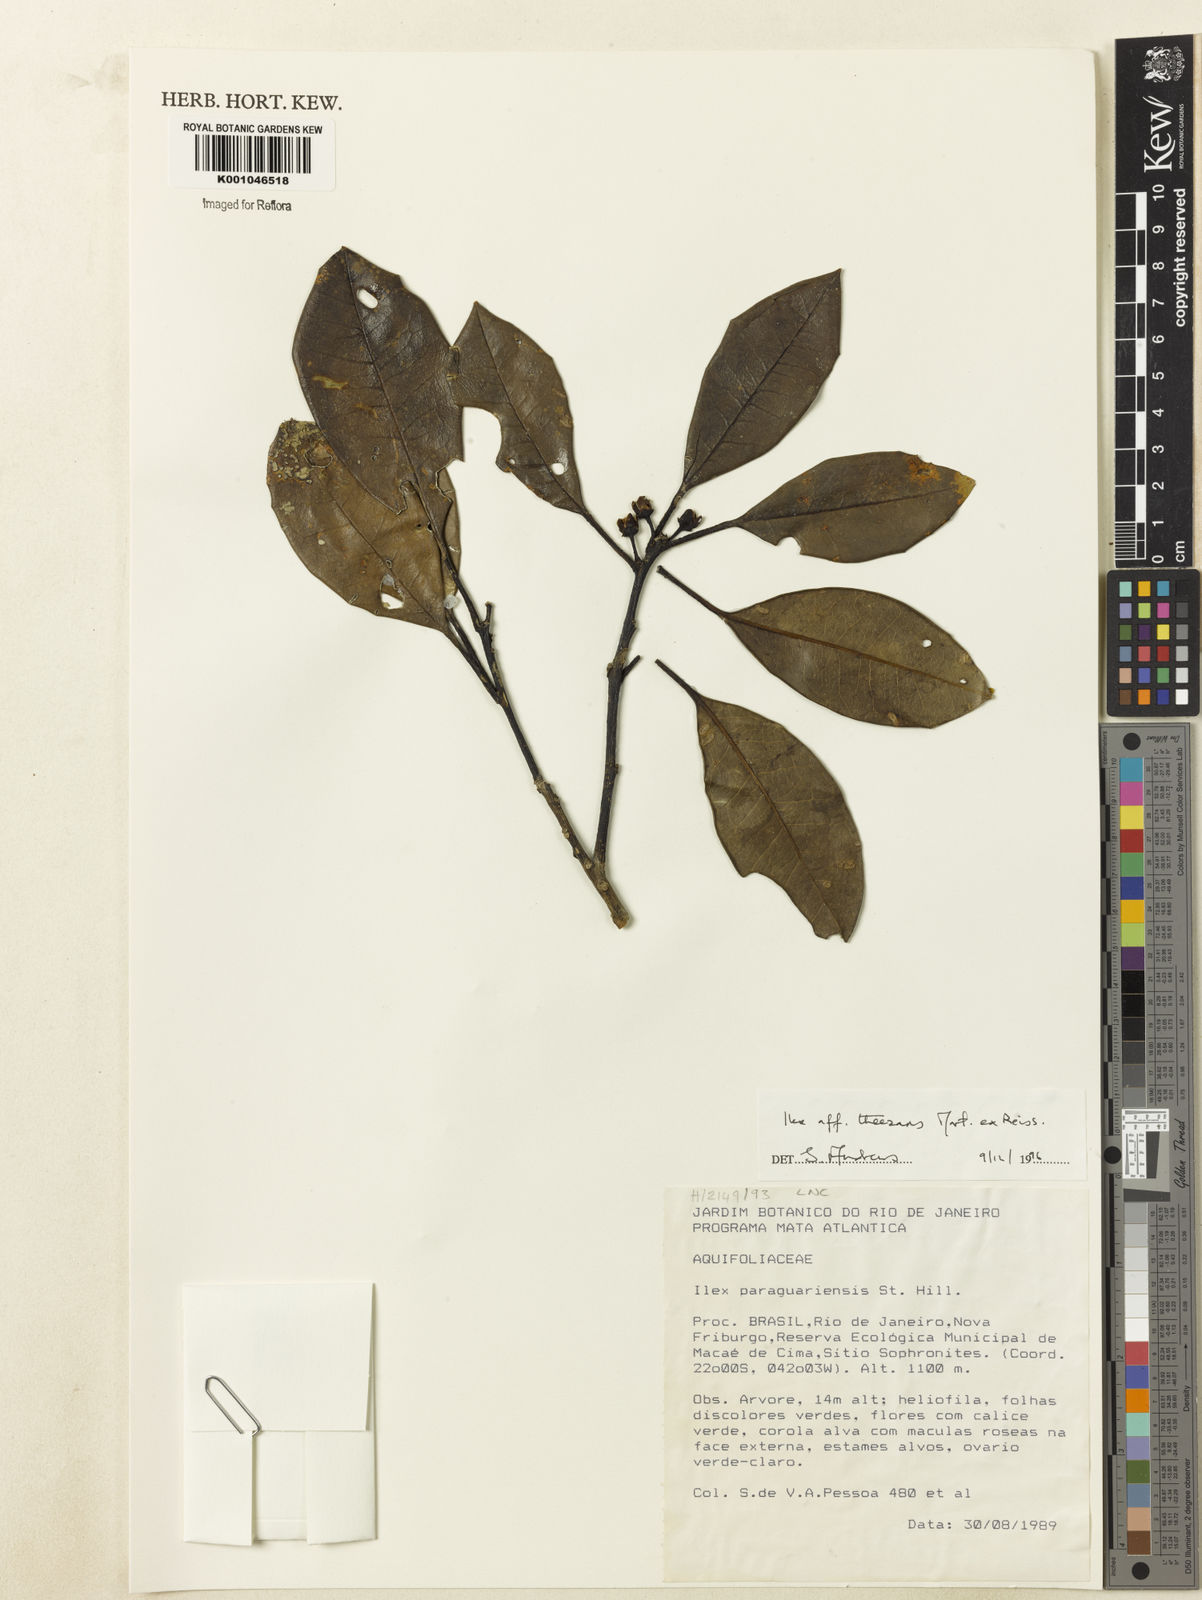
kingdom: Plantae
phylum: Tracheophyta
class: Magnoliopsida
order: Aquifoliales
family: Aquifoliaceae
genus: Ilex
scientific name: Ilex paraguariensis
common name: Paraguay tea
